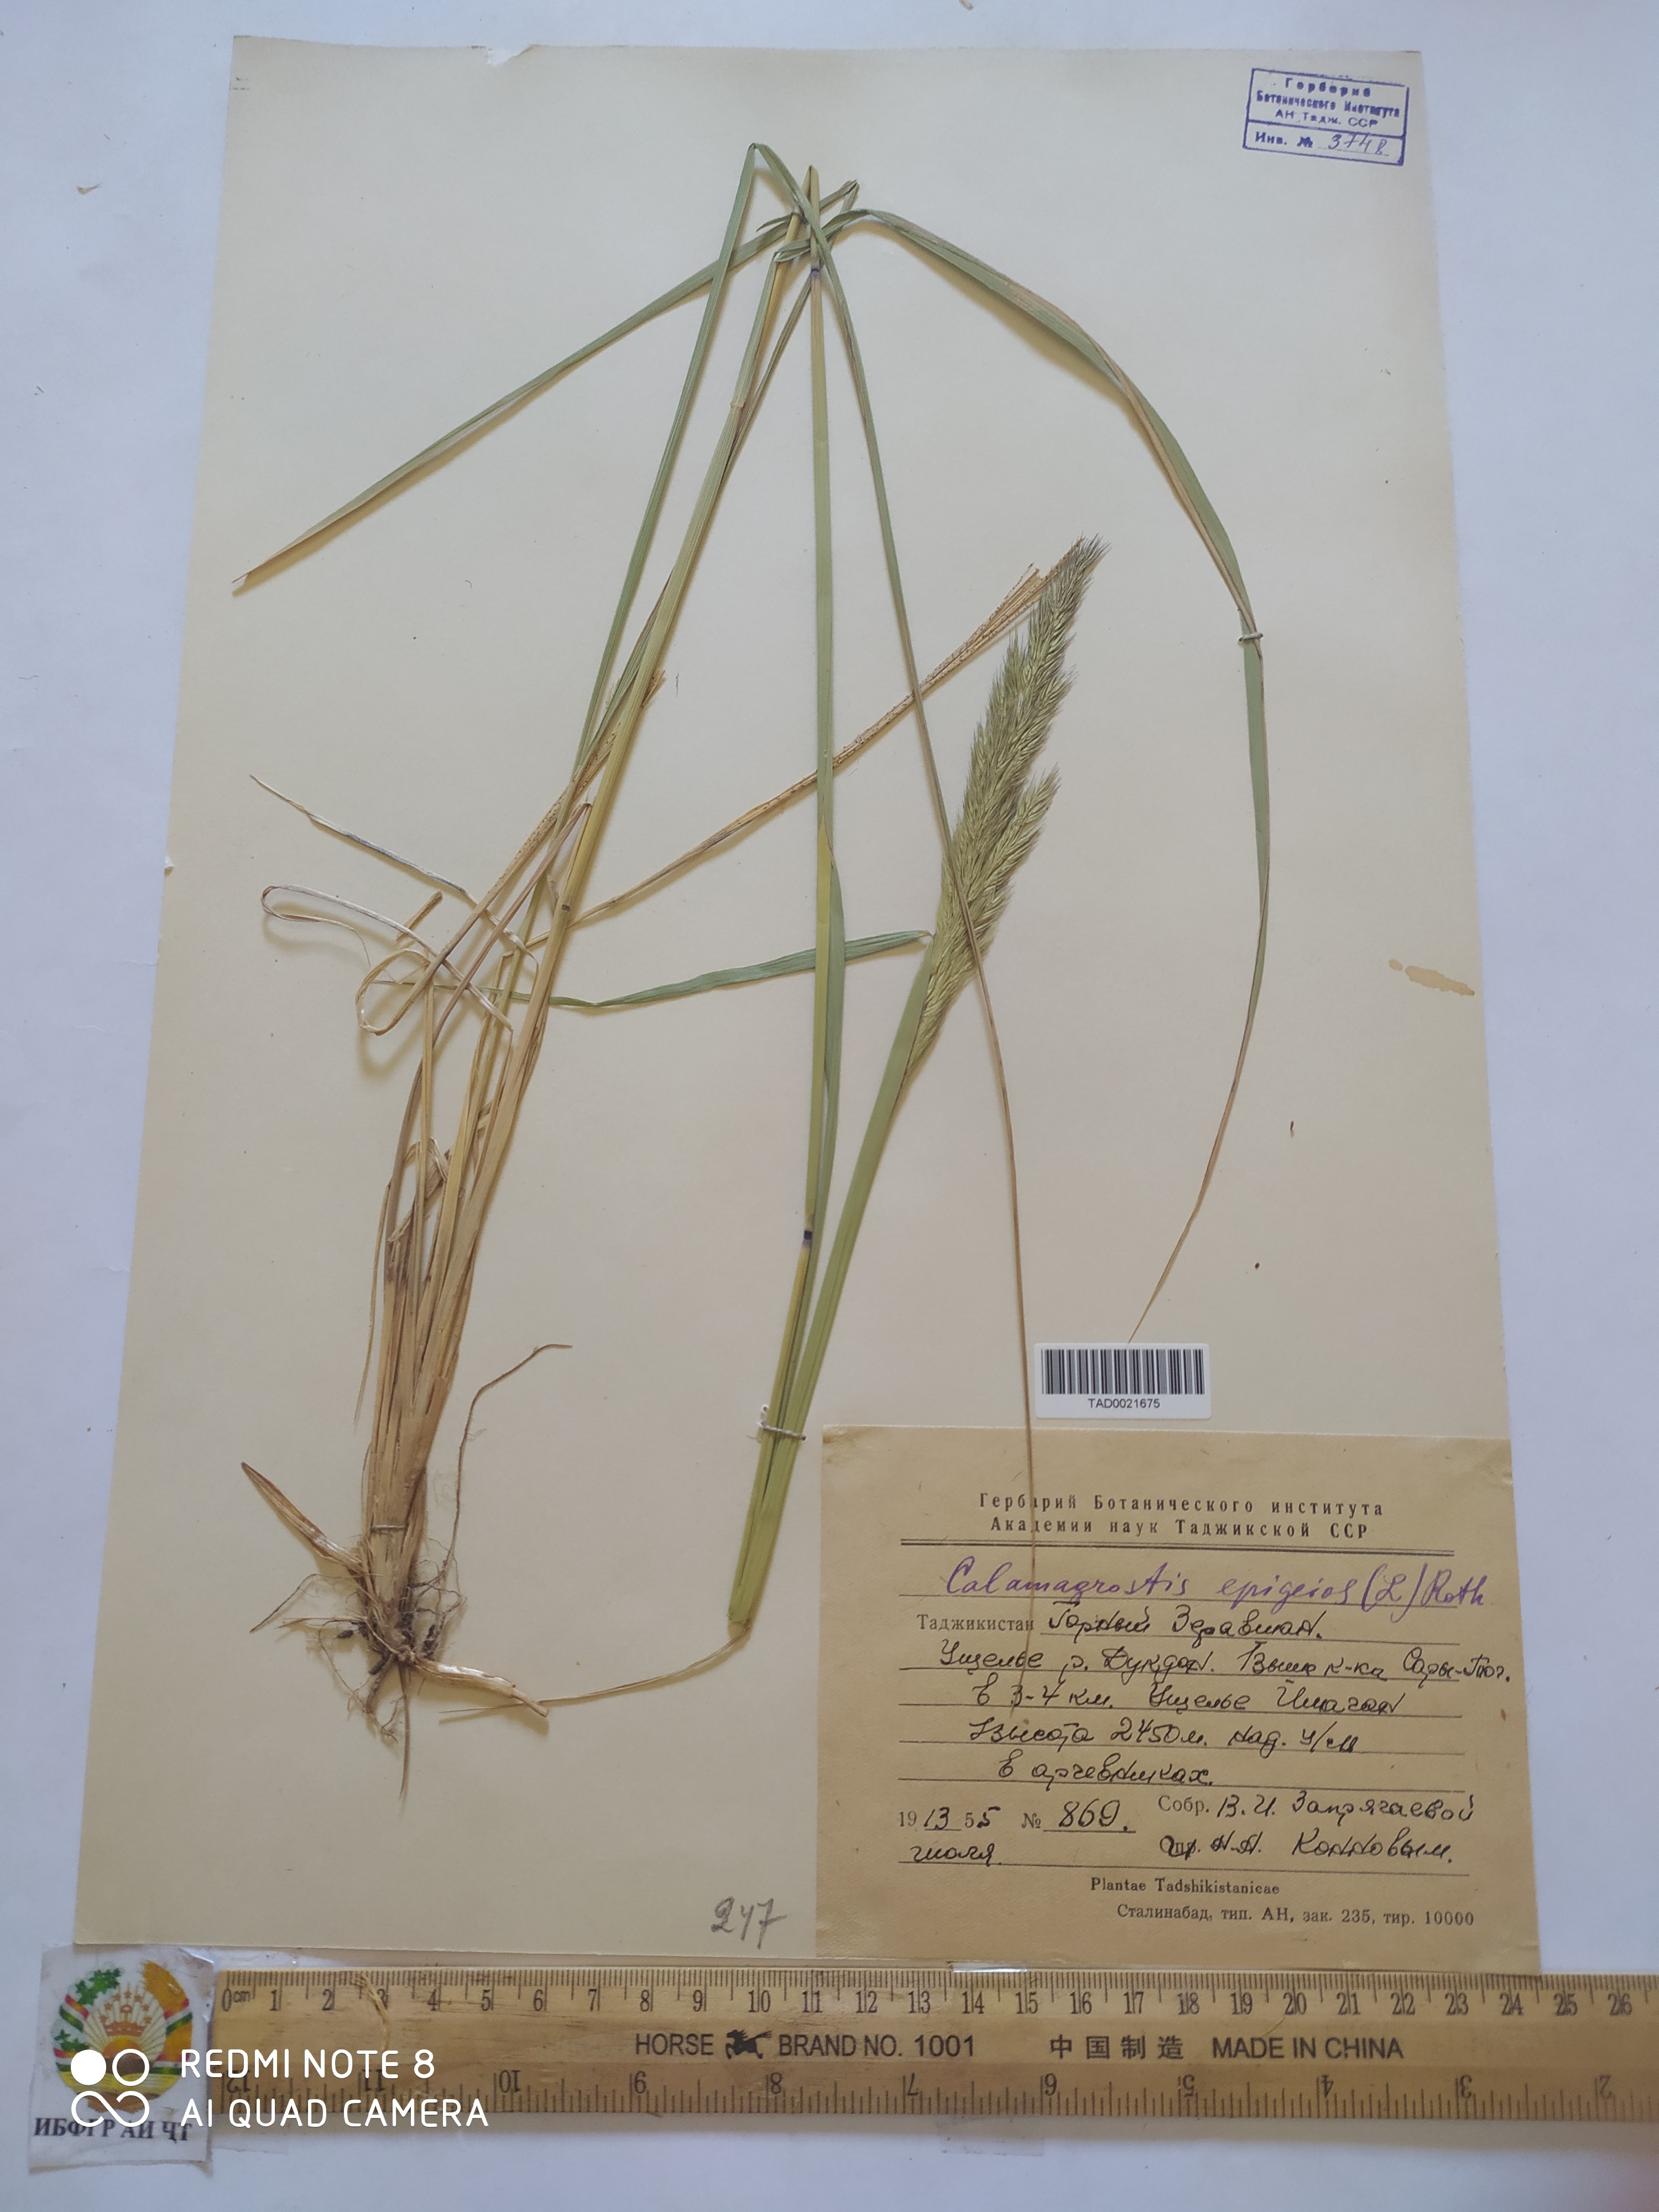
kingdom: Plantae
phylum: Tracheophyta
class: Liliopsida
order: Poales
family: Poaceae
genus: Calamagrostis
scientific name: Calamagrostis epigejos
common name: Wood small-reed
